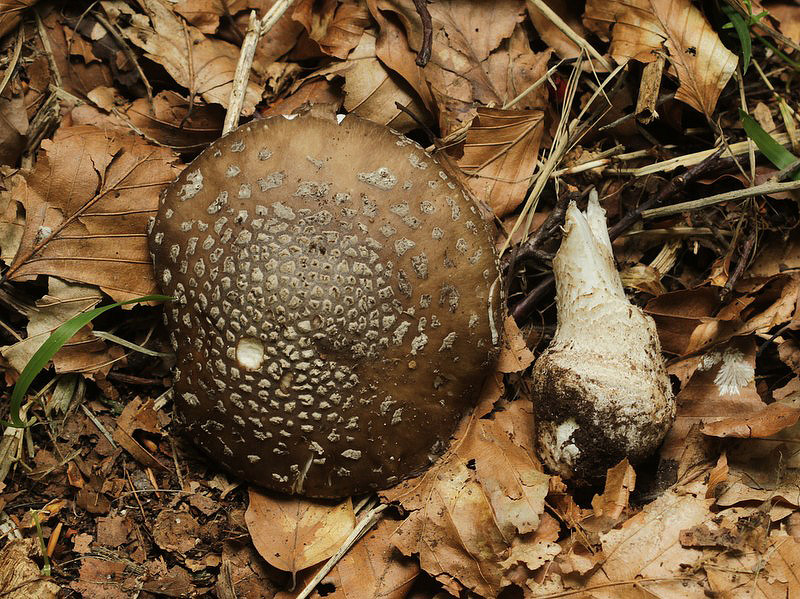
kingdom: Fungi
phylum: Basidiomycota
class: Agaricomycetes
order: Agaricales
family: Amanitaceae
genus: Amanita
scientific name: Amanita pantherina
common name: panter-fluesvamp
